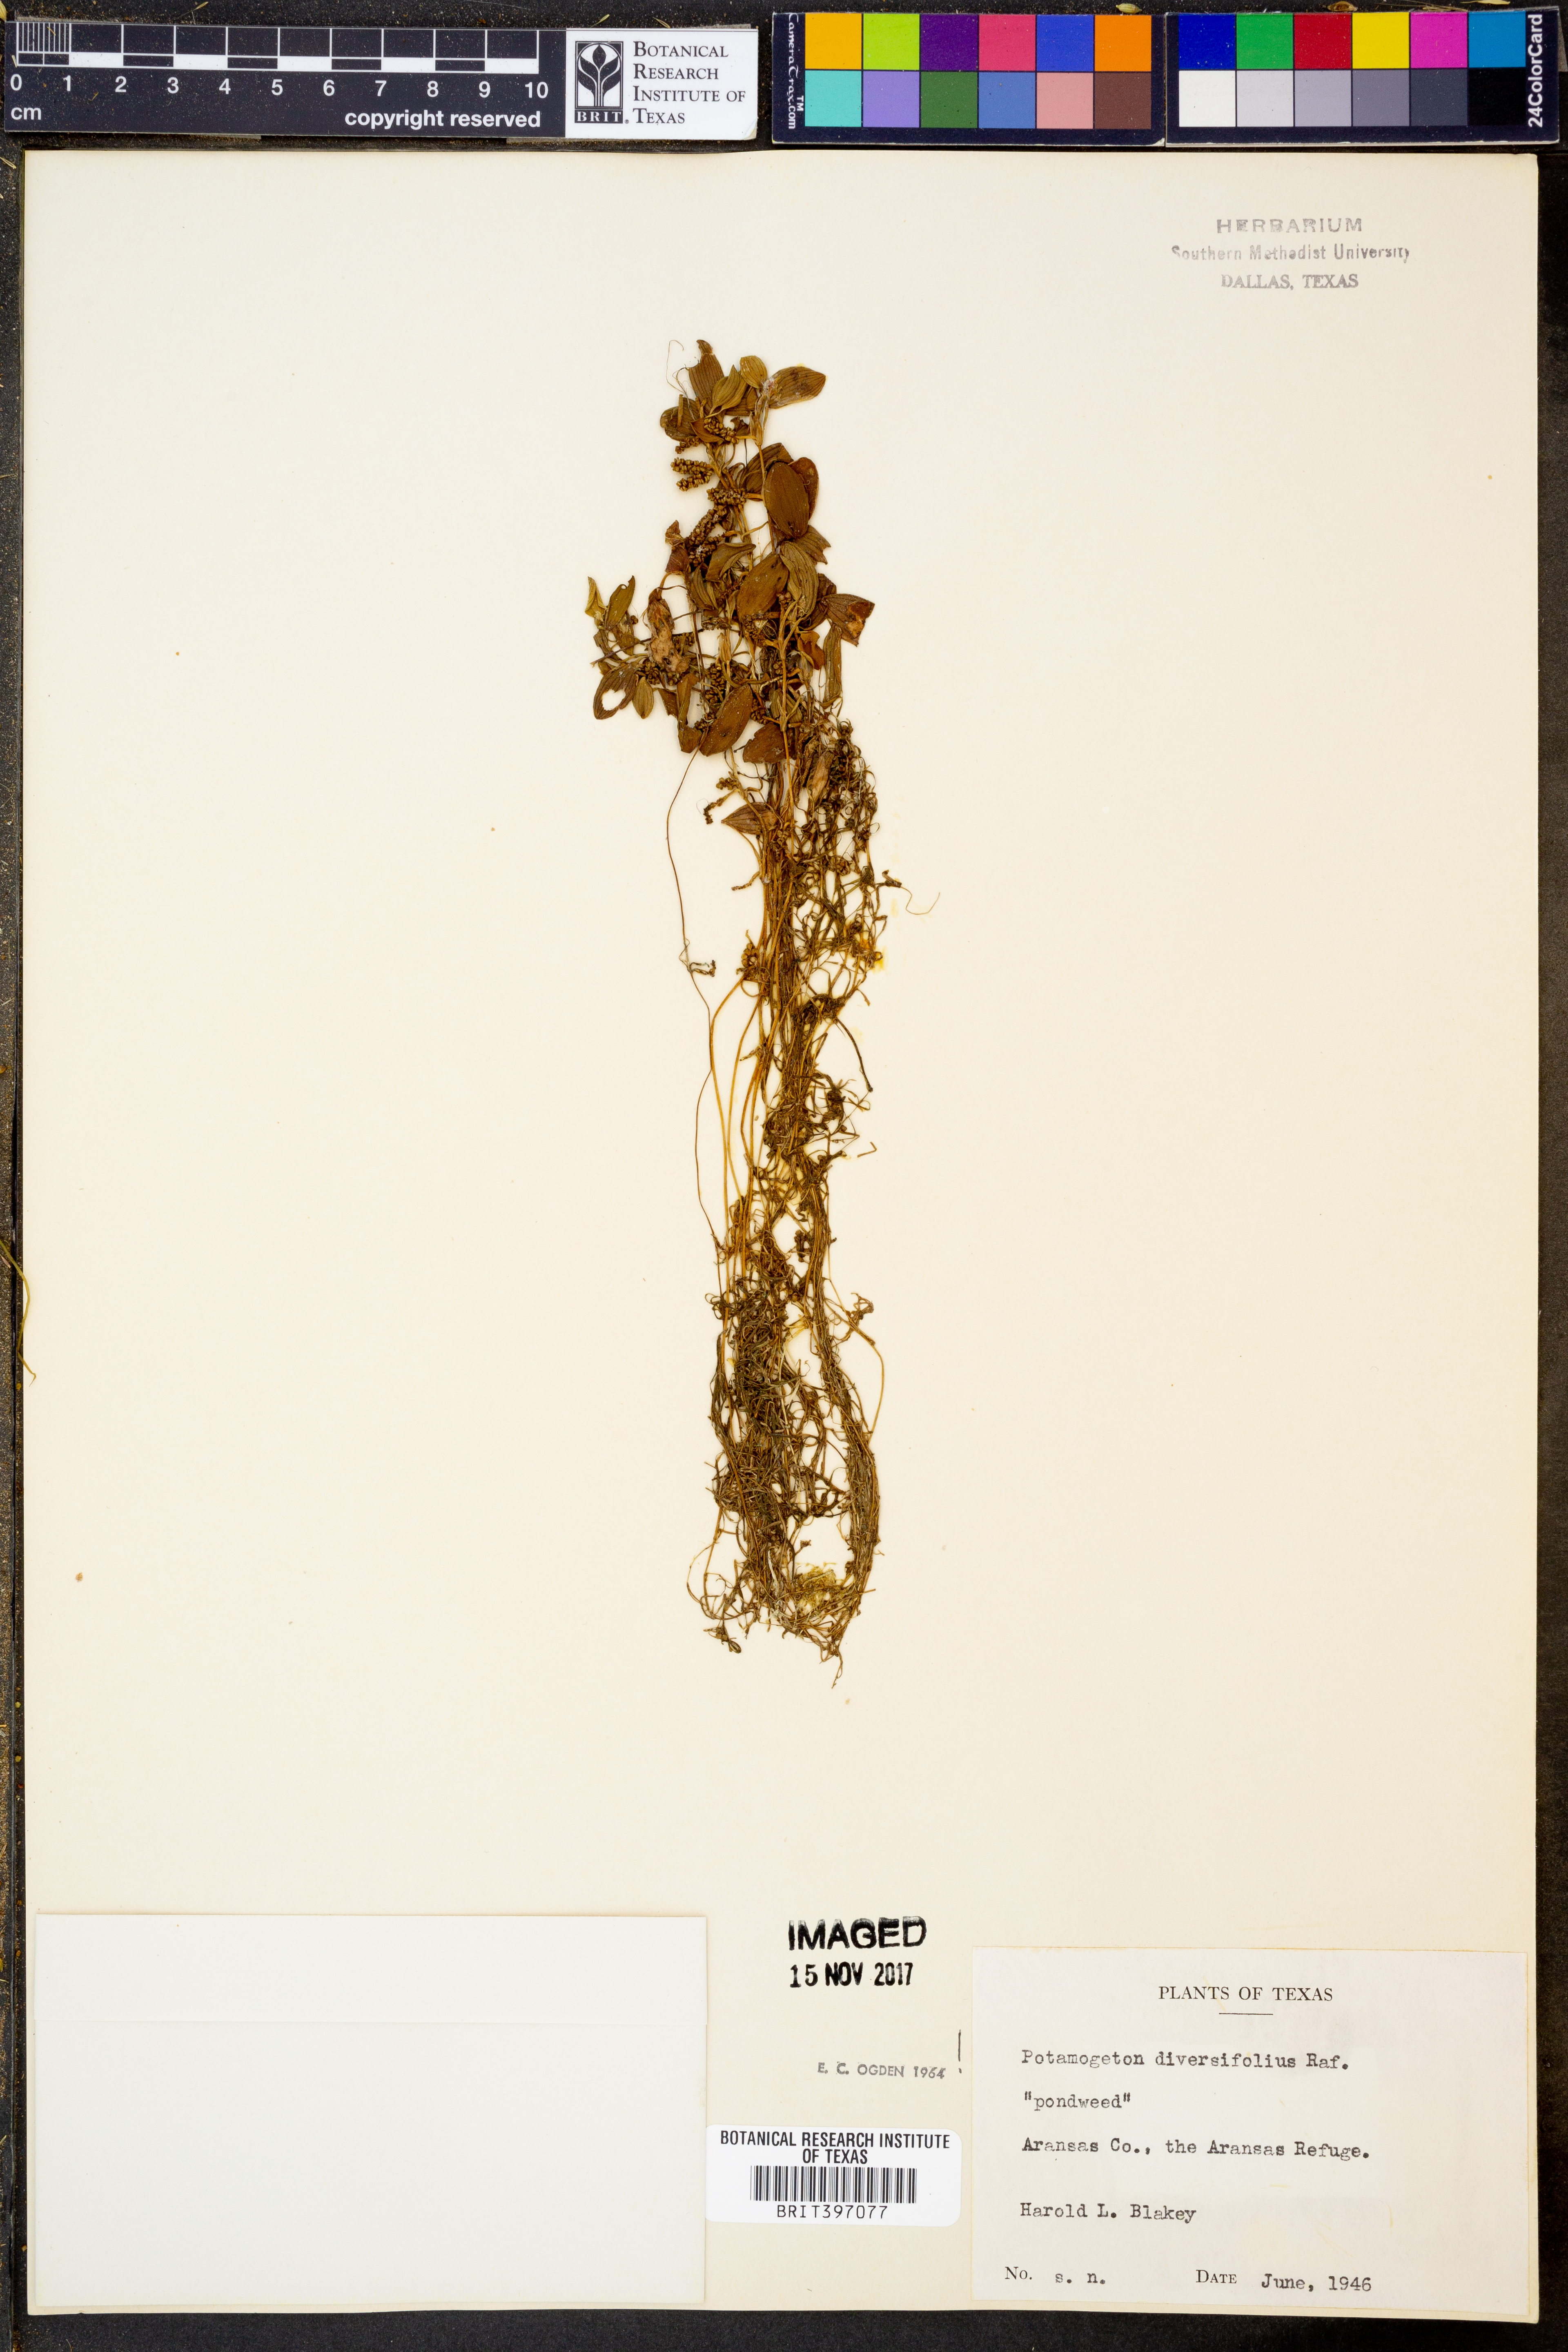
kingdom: Plantae
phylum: Tracheophyta
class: Liliopsida
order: Alismatales
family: Potamogetonaceae
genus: Potamogeton
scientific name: Potamogeton diversifolius
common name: Water-thread pondweed
